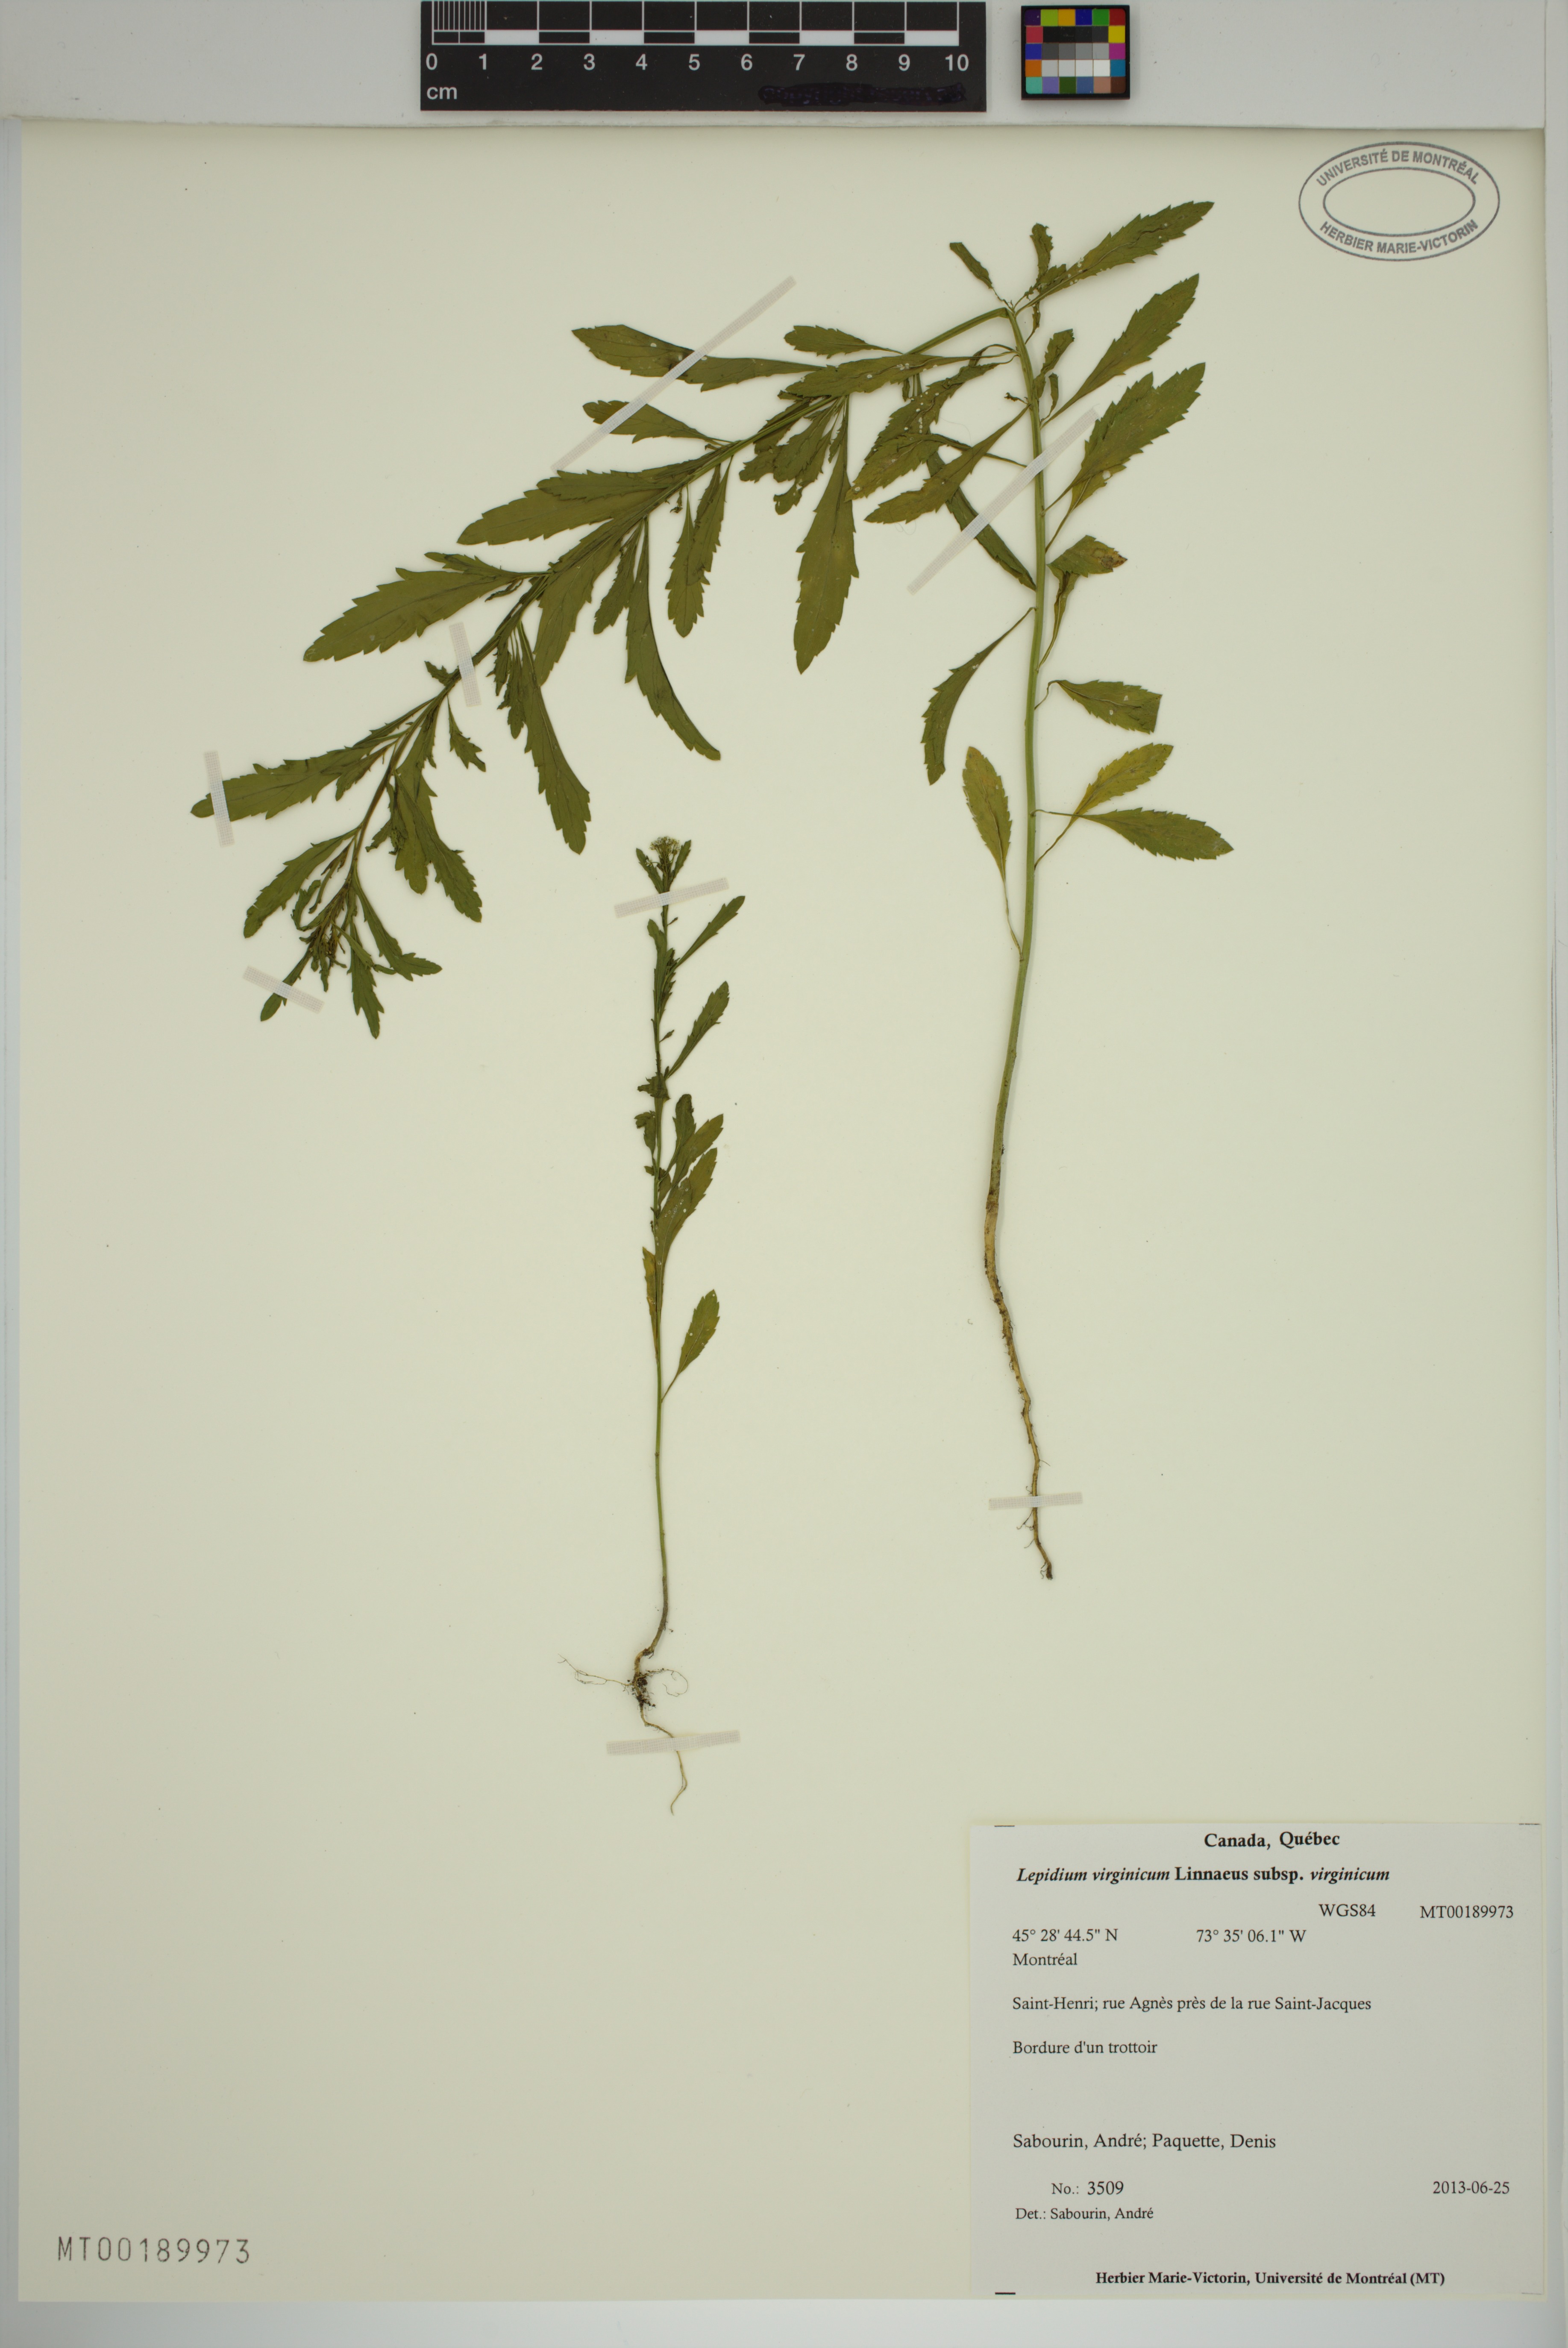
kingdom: Plantae
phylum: Tracheophyta
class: Magnoliopsida
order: Brassicales
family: Brassicaceae
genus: Lepidium
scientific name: Lepidium virginicum
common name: Least pepperwort
